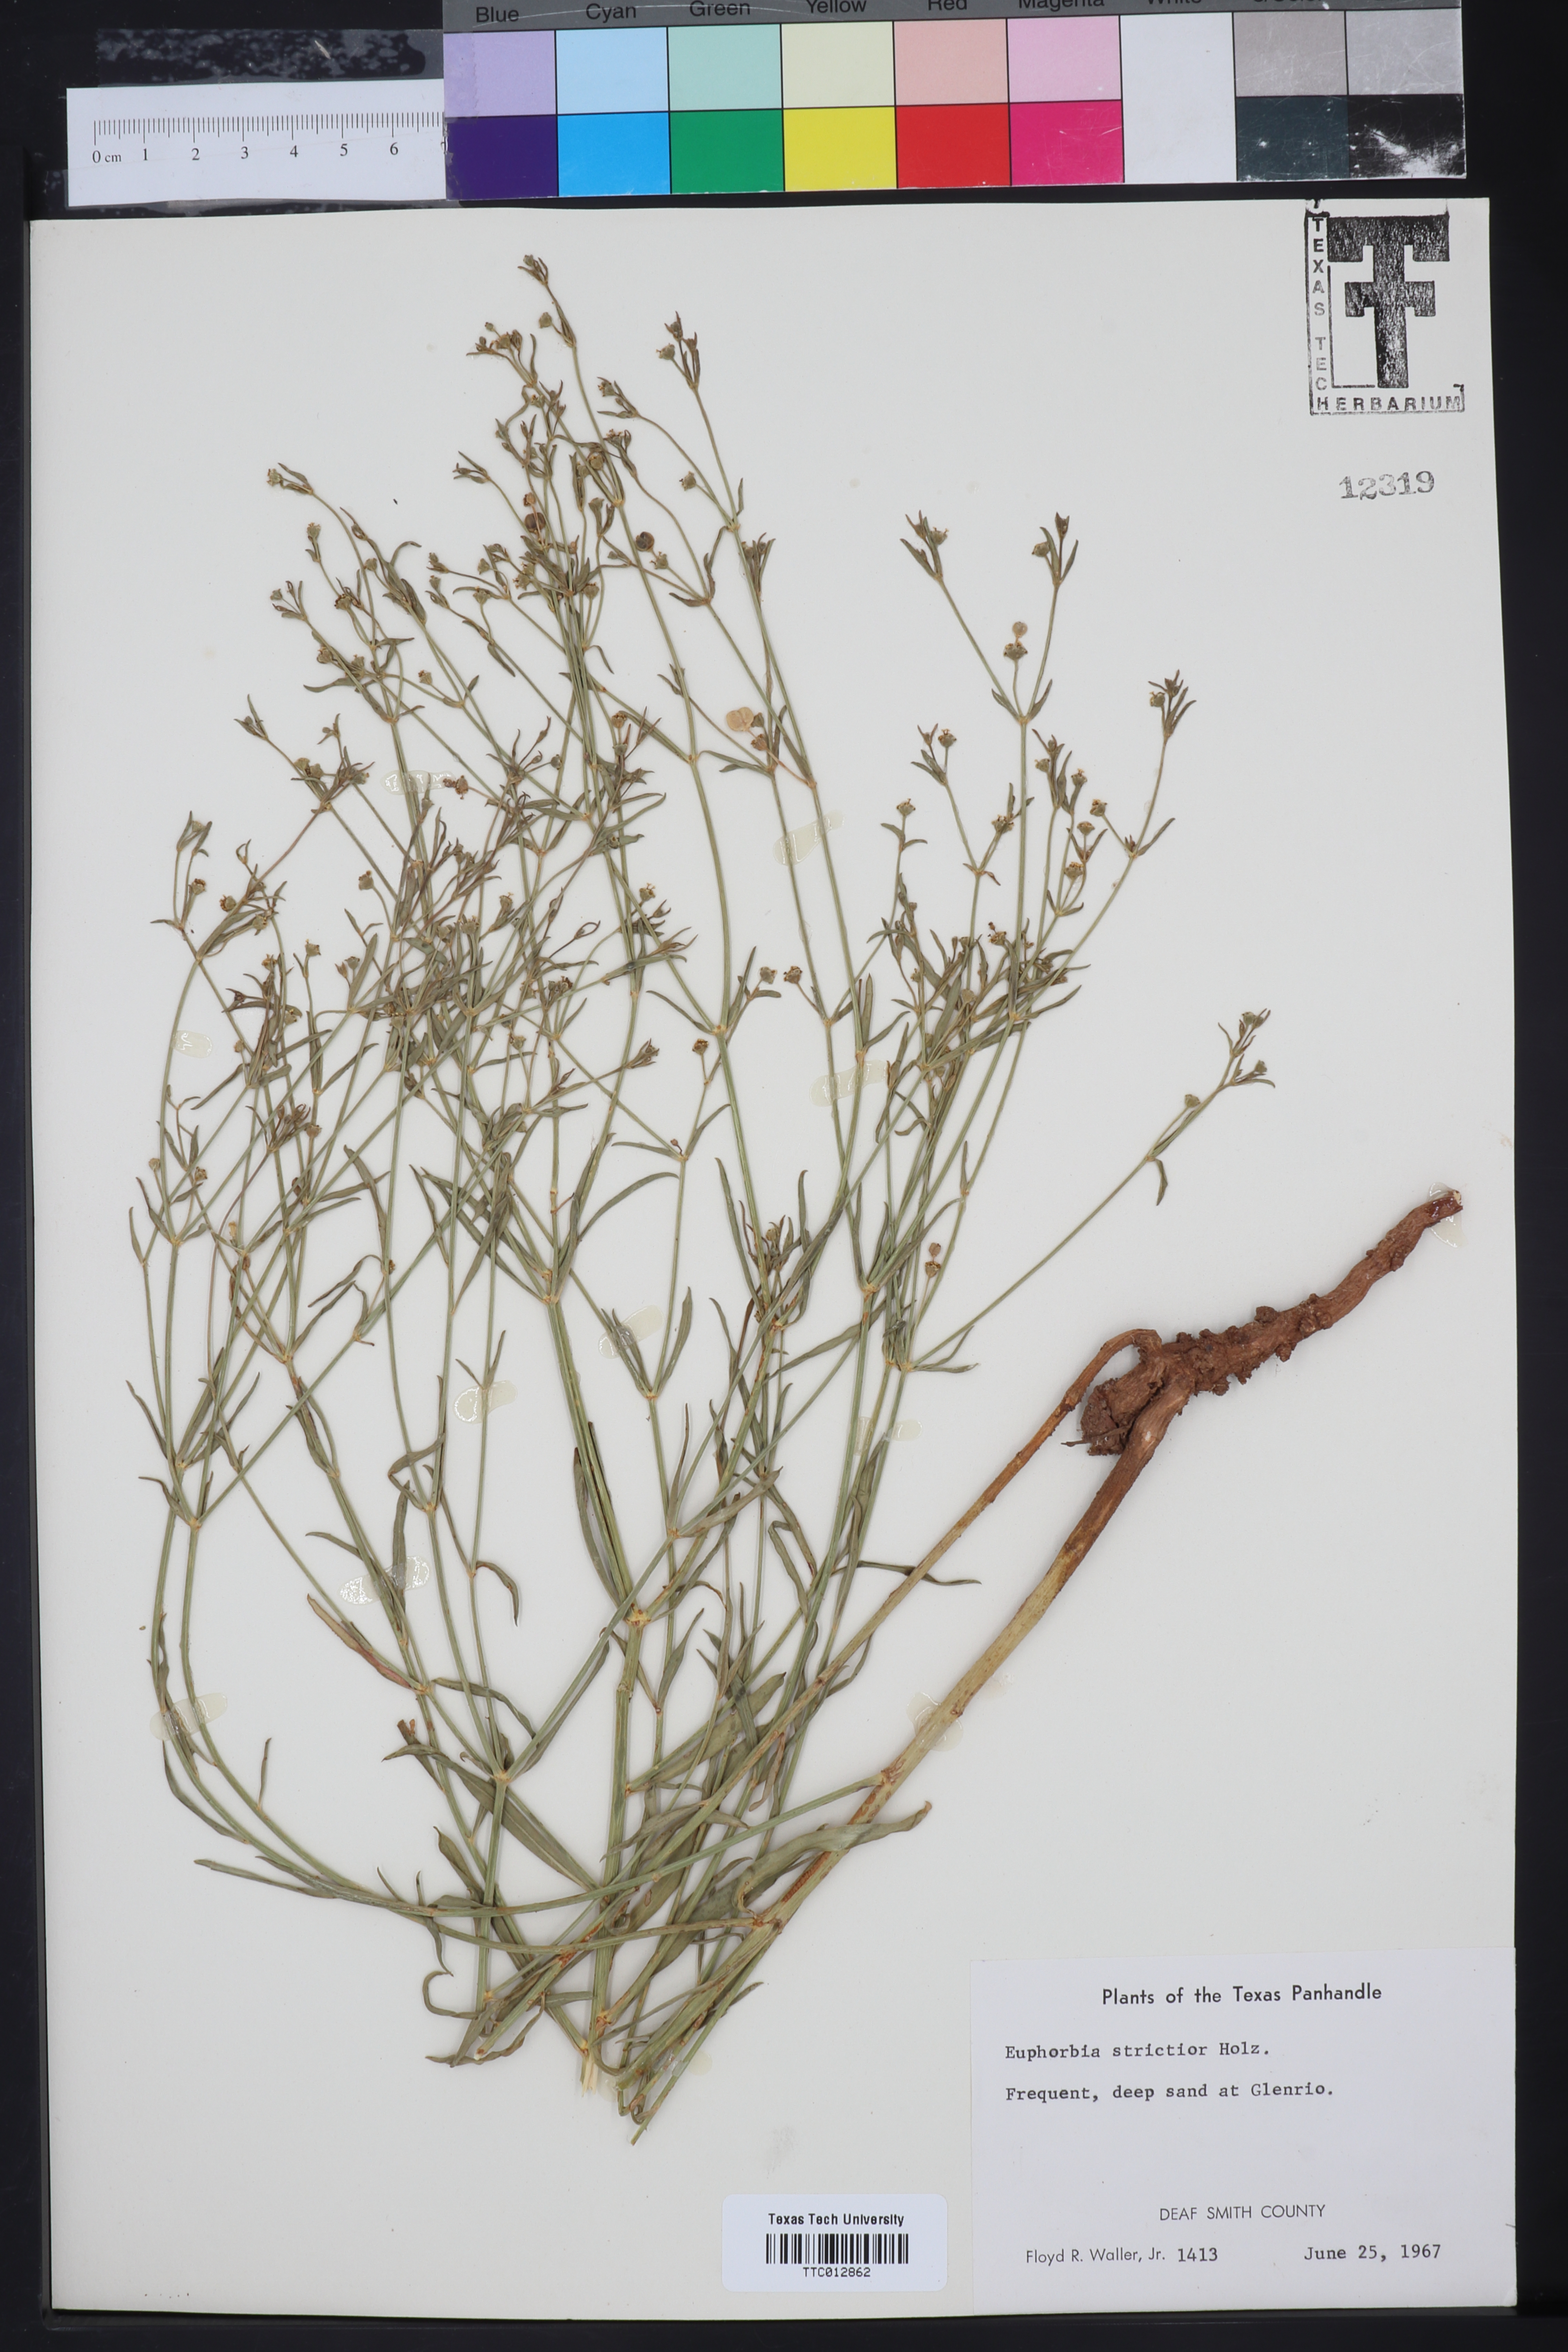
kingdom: Plantae
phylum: Tracheophyta
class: Magnoliopsida
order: Malpighiales
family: Euphorbiaceae
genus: Euphorbia
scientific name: Euphorbia strictior
